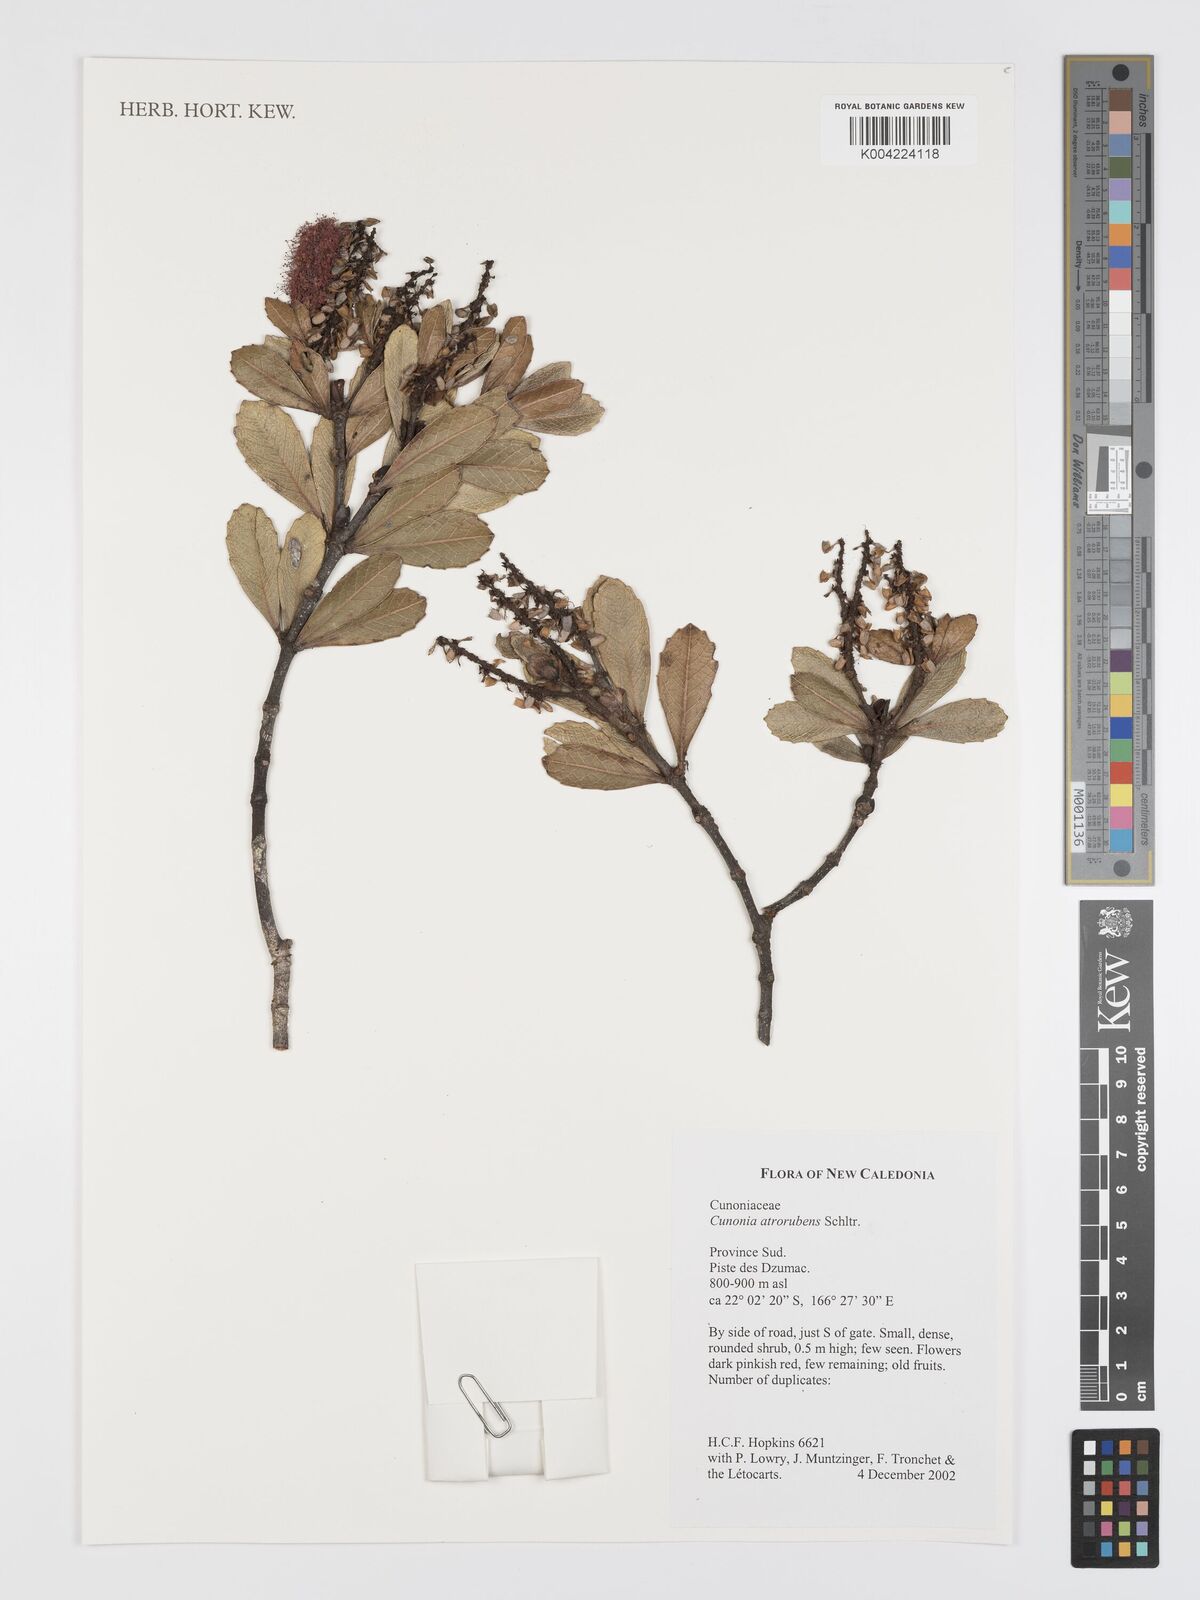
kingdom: Plantae
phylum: Tracheophyta
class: Magnoliopsida
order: Oxalidales
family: Cunoniaceae
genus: Cunonia
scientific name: Cunonia atrorubens
